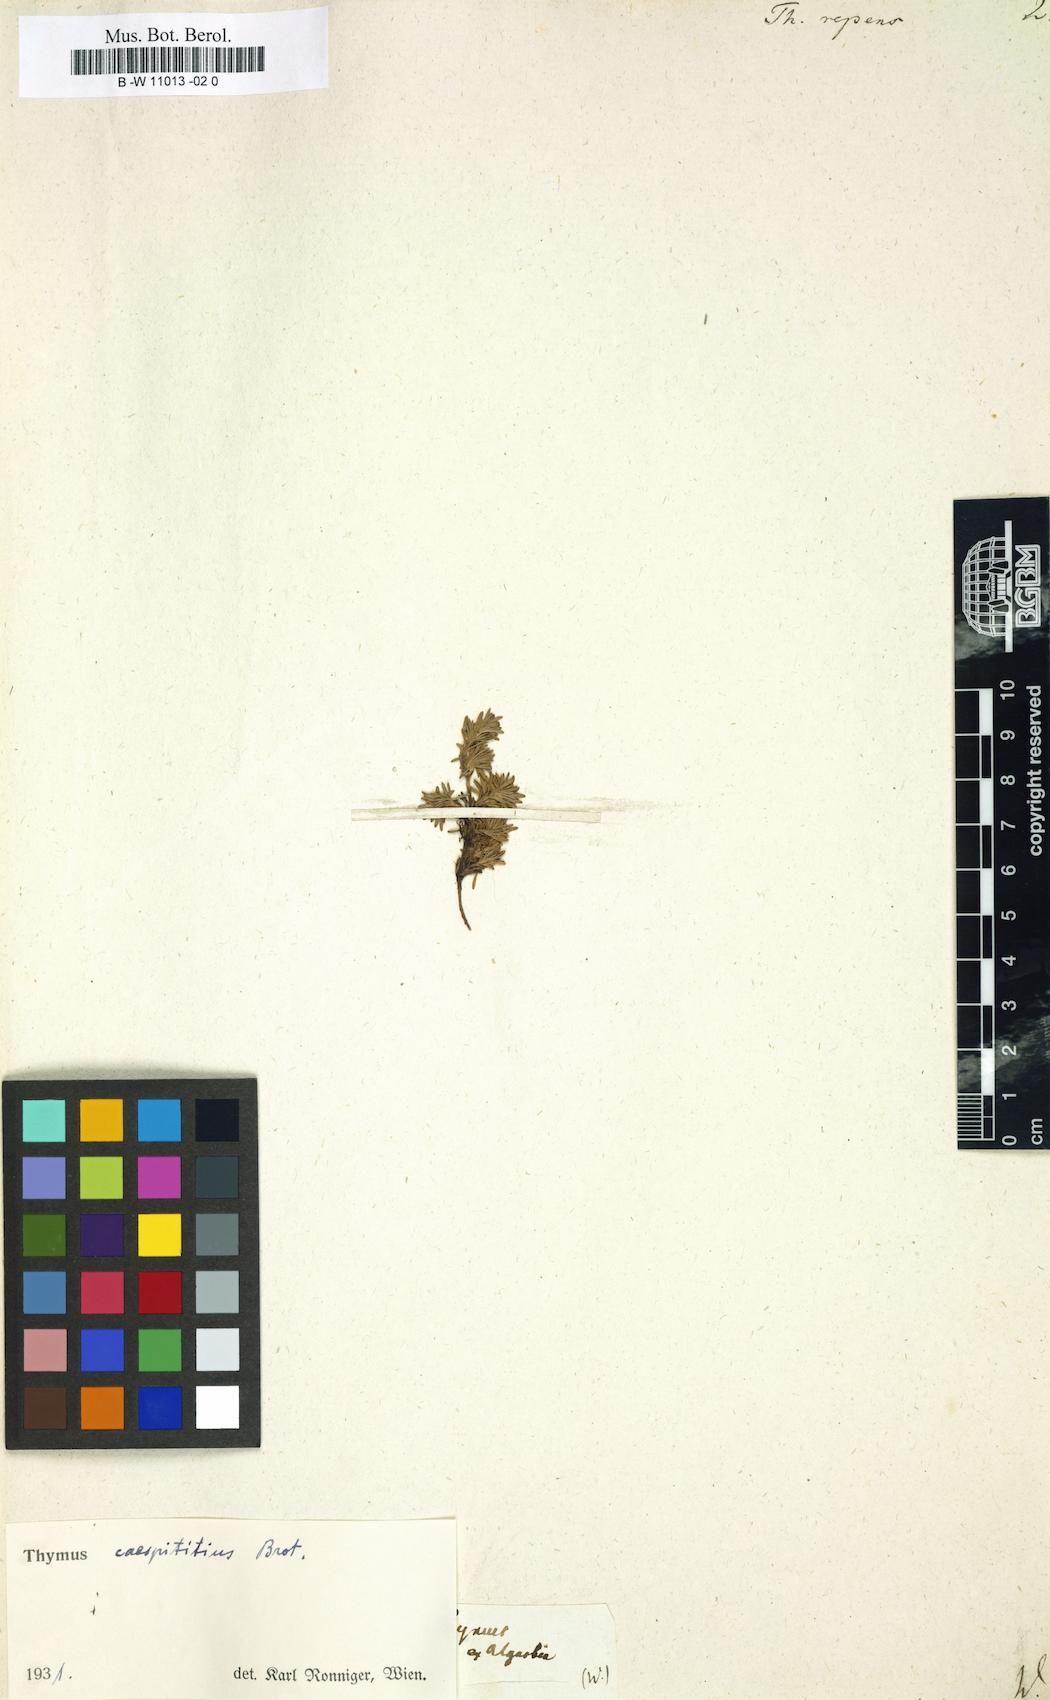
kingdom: Plantae
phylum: Tracheophyta
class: Magnoliopsida
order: Lamiales
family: Lamiaceae
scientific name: Lamiaceae
